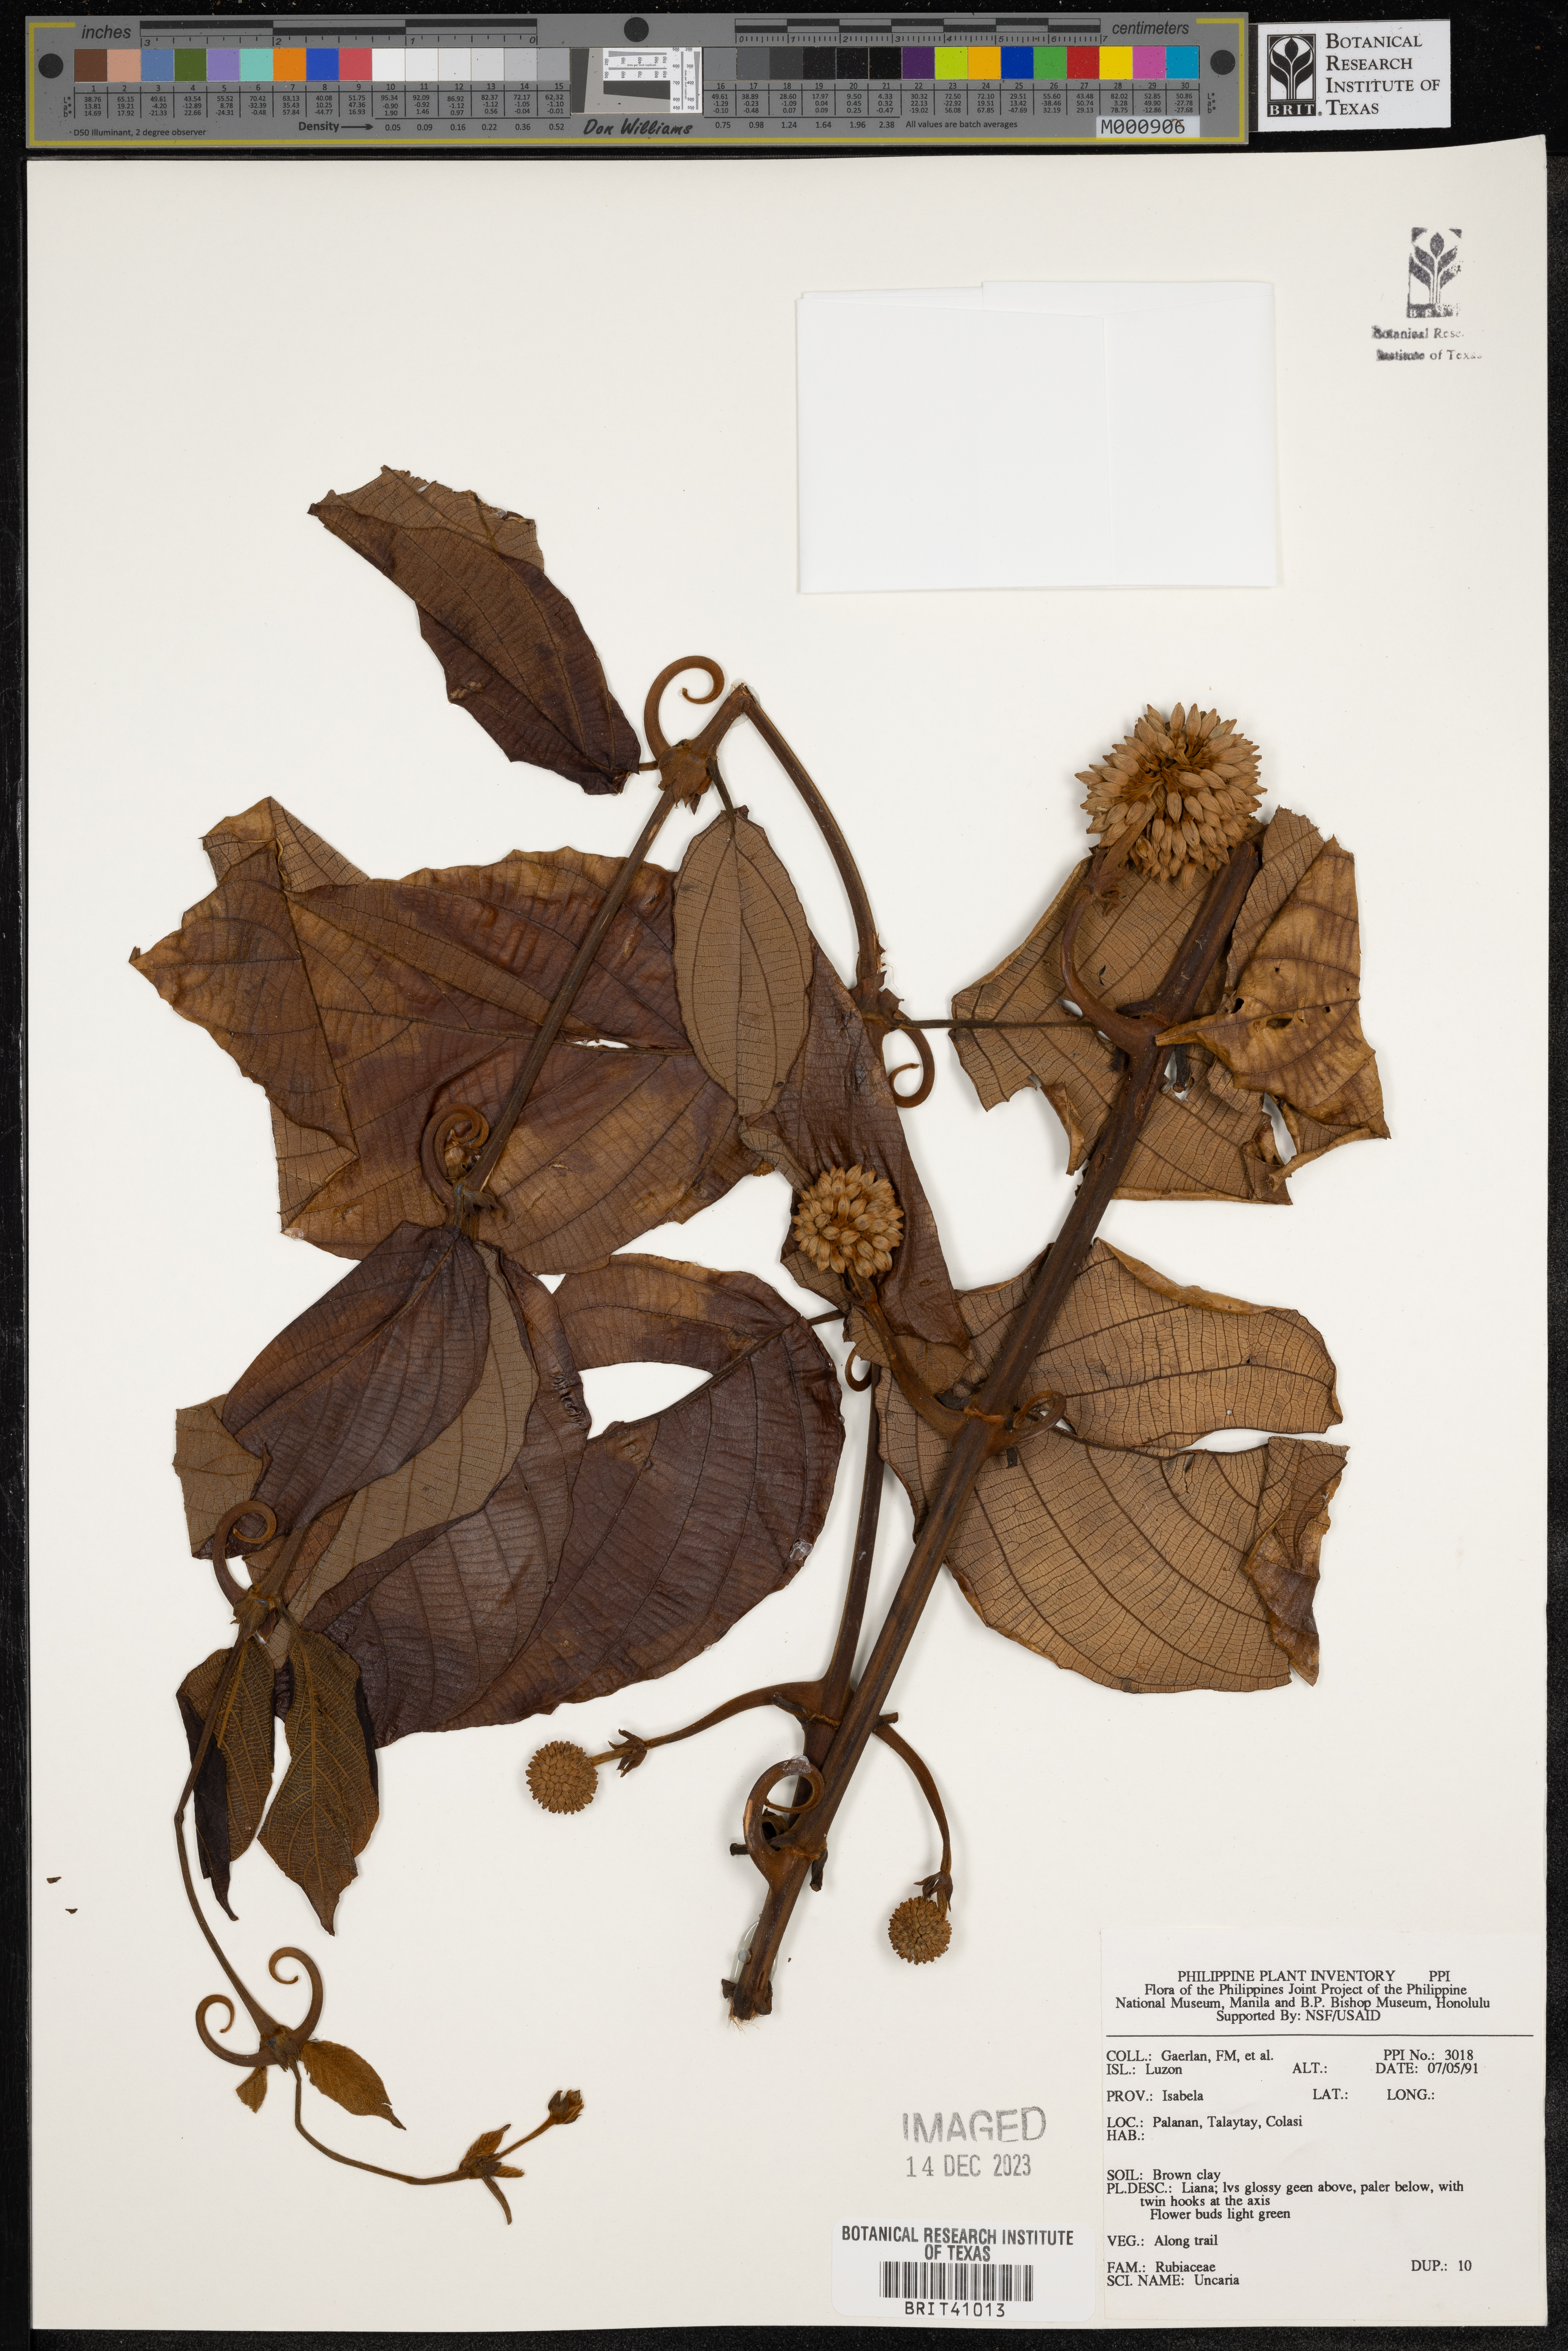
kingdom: Plantae
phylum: Tracheophyta
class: Magnoliopsida
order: Gentianales
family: Rubiaceae
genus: Uncaria
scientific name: Uncaria
